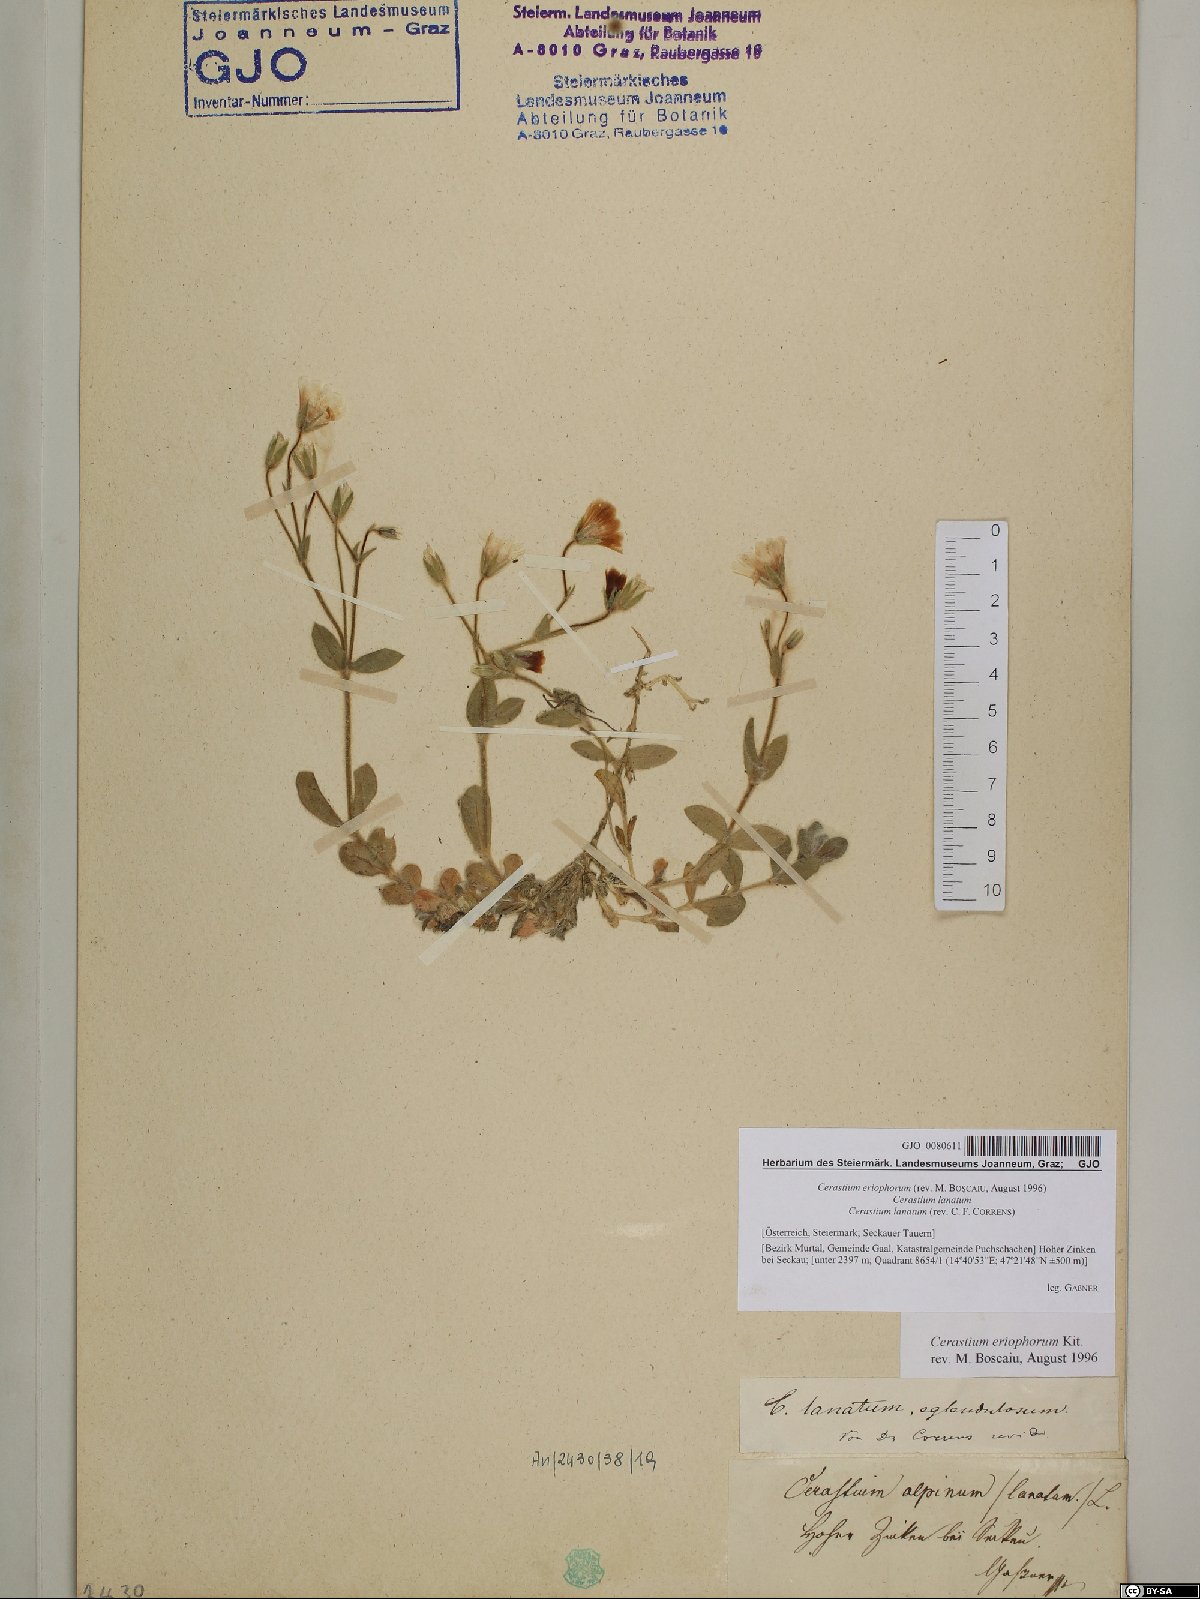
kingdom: Plantae
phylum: Tracheophyta
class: Magnoliopsida
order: Caryophyllales
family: Caryophyllaceae
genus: Cerastium
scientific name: Cerastium eriophorum
